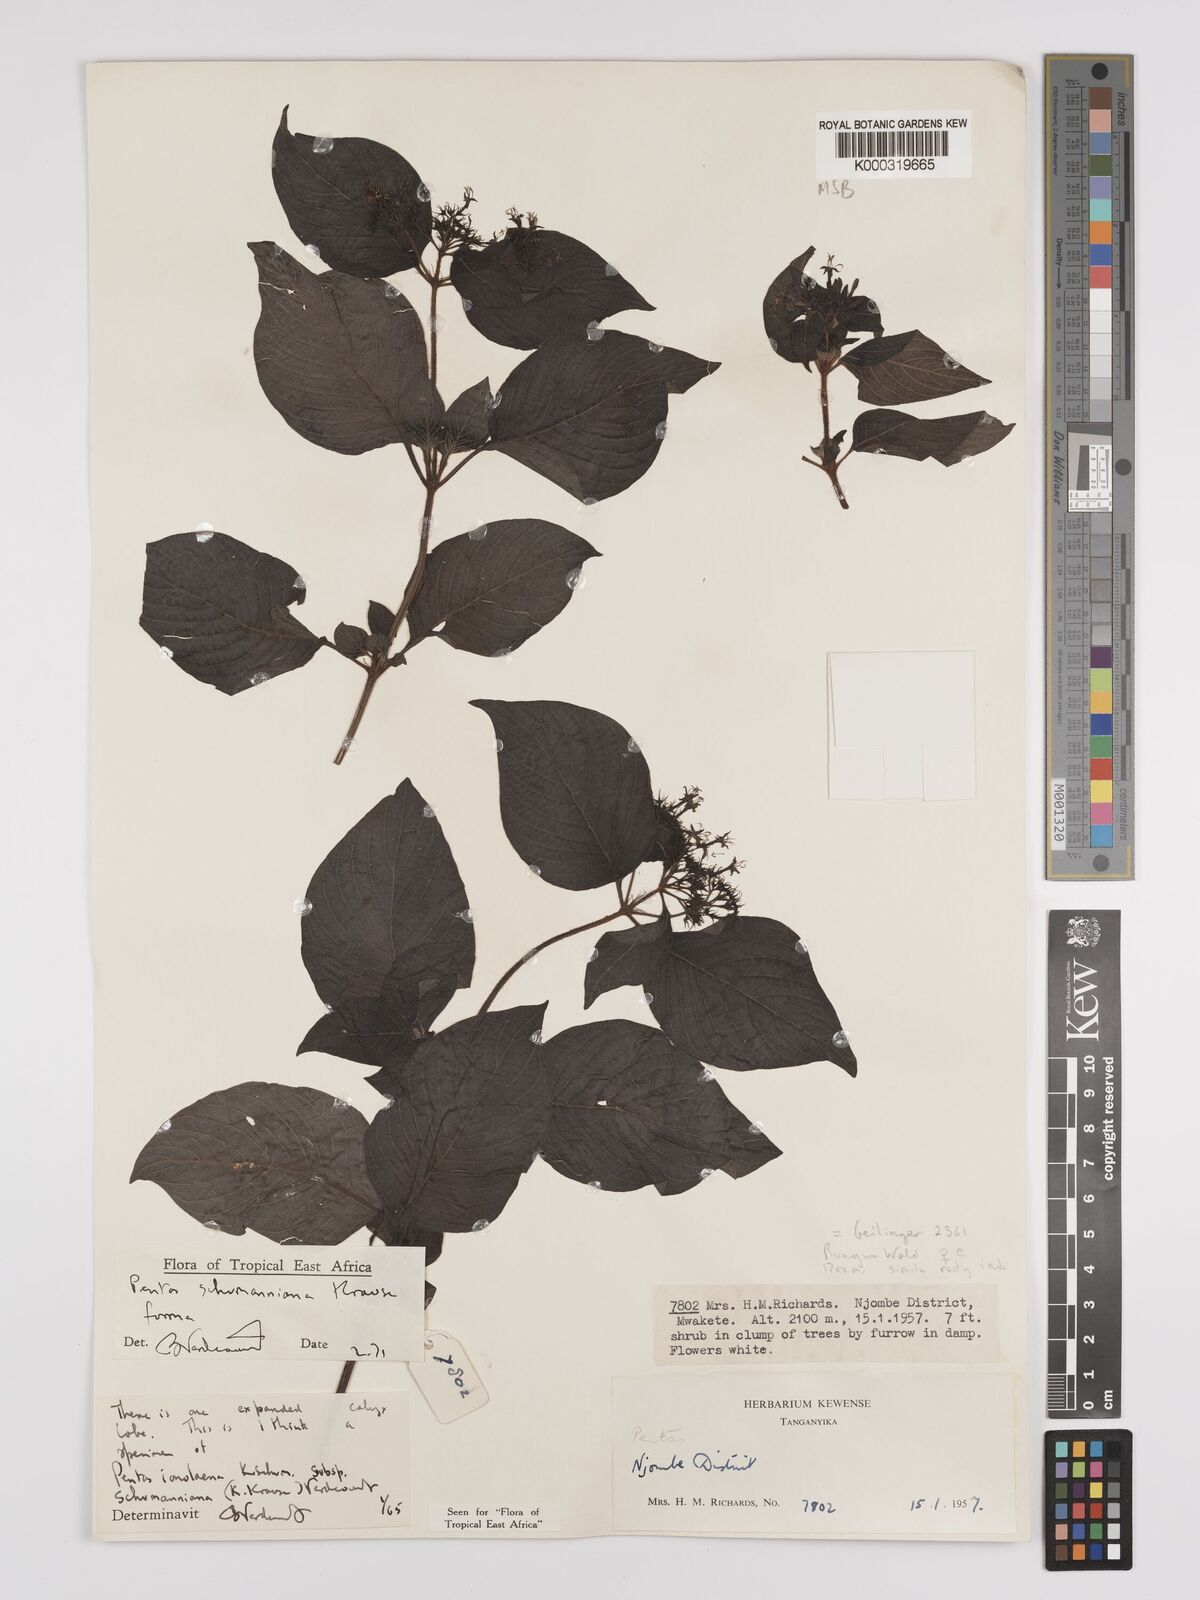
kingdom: Plantae
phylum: Tracheophyta
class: Magnoliopsida
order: Gentianales
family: Rubiaceae
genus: Phyllopentas
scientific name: Phyllopentas schumanniana
